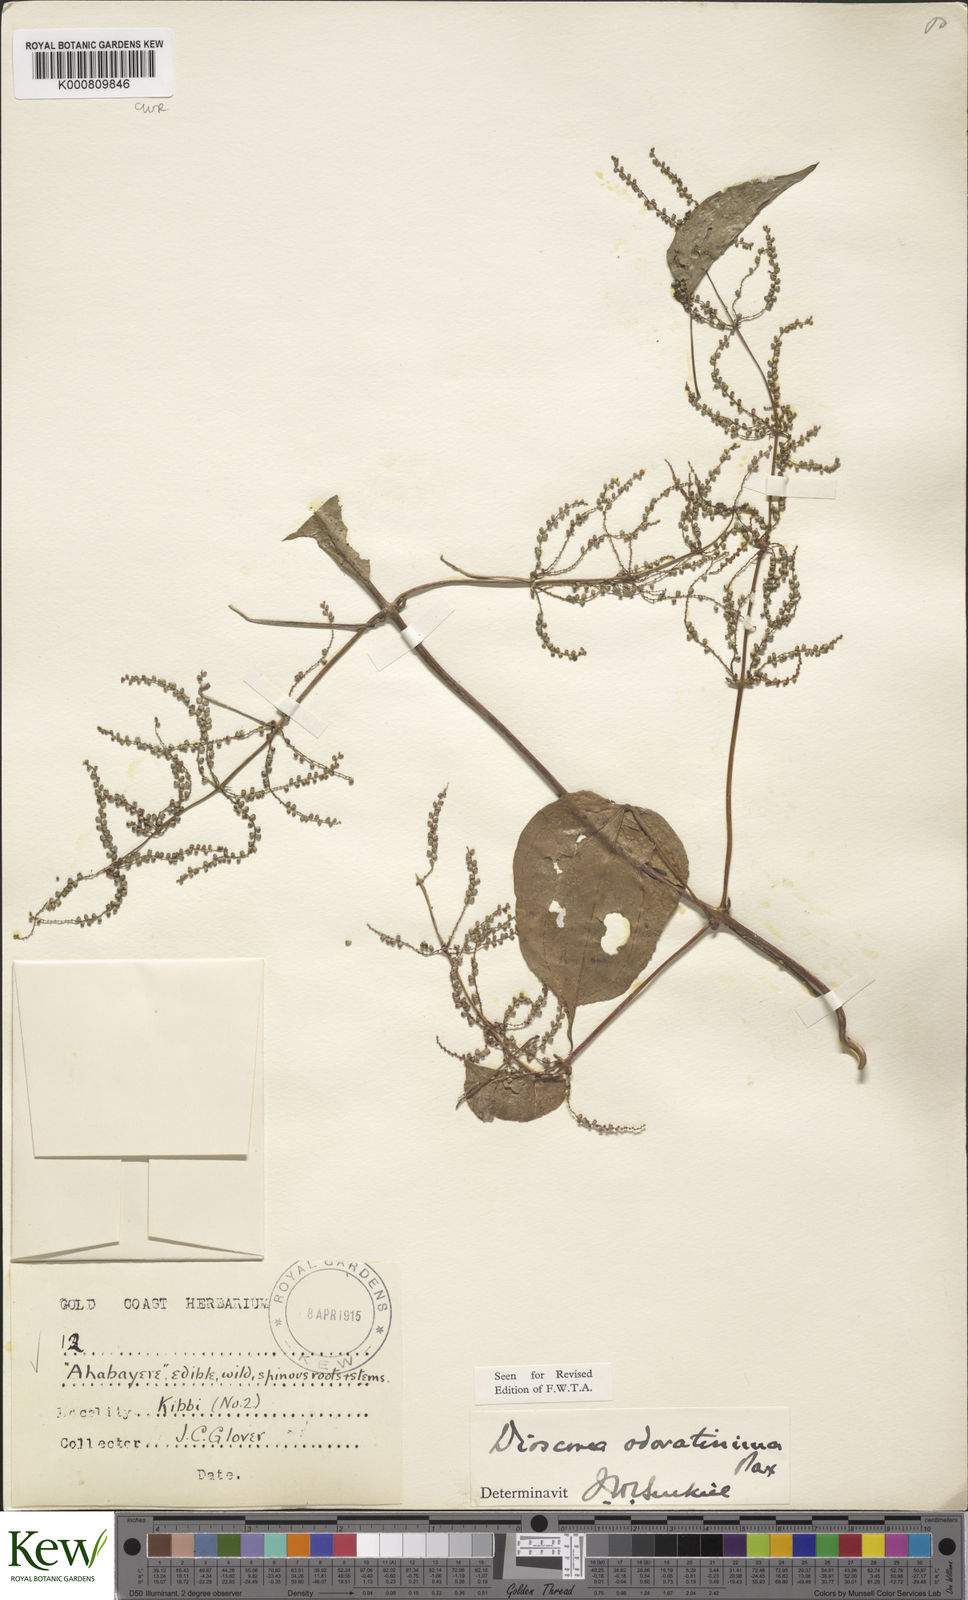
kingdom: Plantae
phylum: Tracheophyta
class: Liliopsida
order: Dioscoreales
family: Dioscoreaceae
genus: Dioscorea
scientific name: Dioscorea praehensilis
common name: Bush yam
